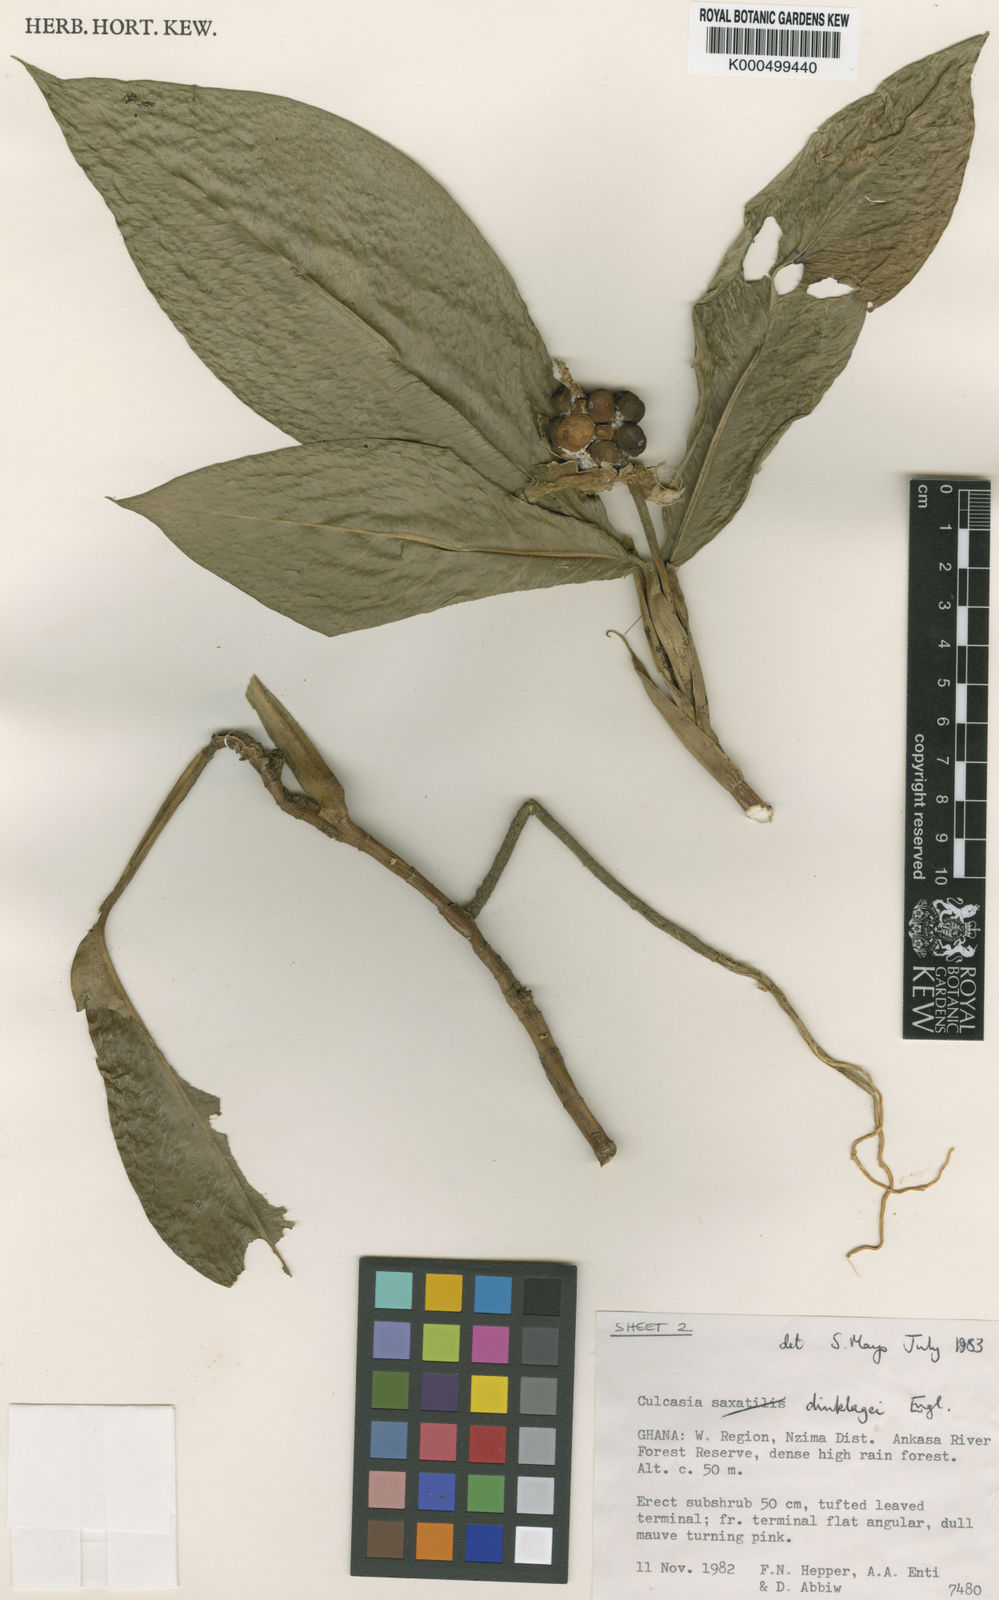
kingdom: Plantae
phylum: Tracheophyta
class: Liliopsida
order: Alismatales
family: Araceae
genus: Culcasia
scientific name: Culcasia scandens
